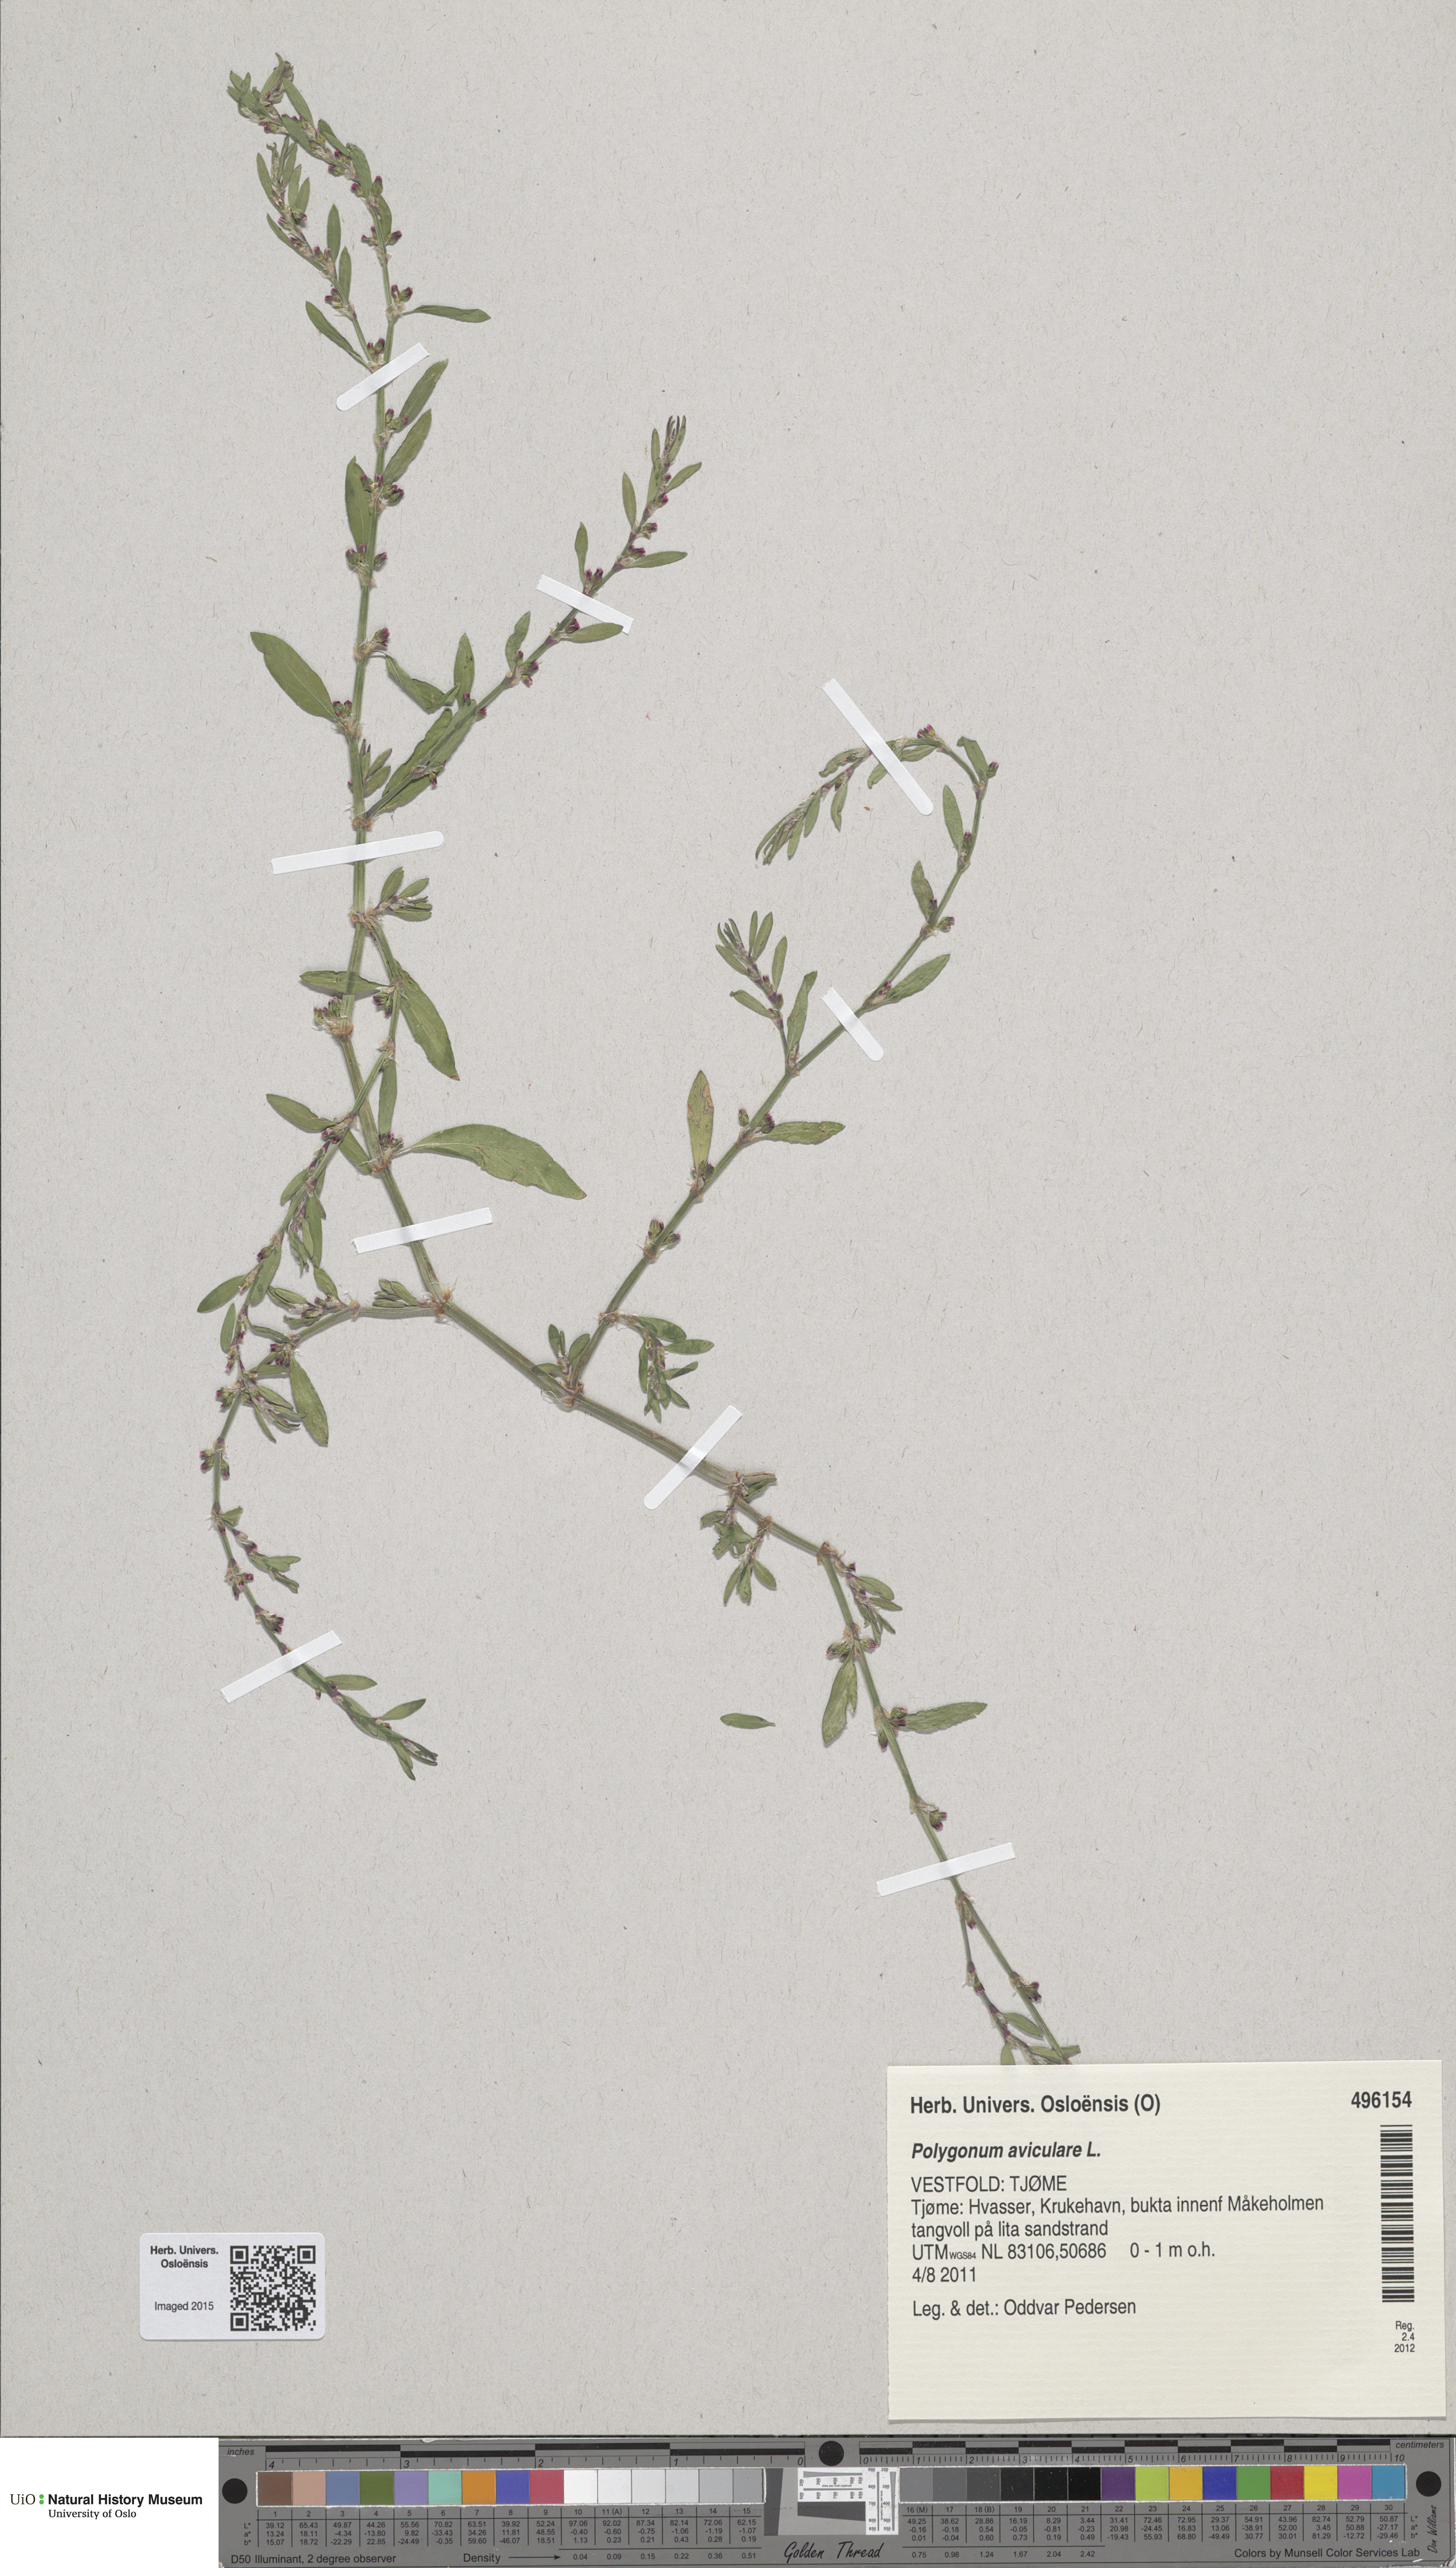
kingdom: Plantae
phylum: Tracheophyta
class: Magnoliopsida
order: Caryophyllales
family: Polygonaceae
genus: Polygonum
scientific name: Polygonum aviculare
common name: Prostrate knotweed
